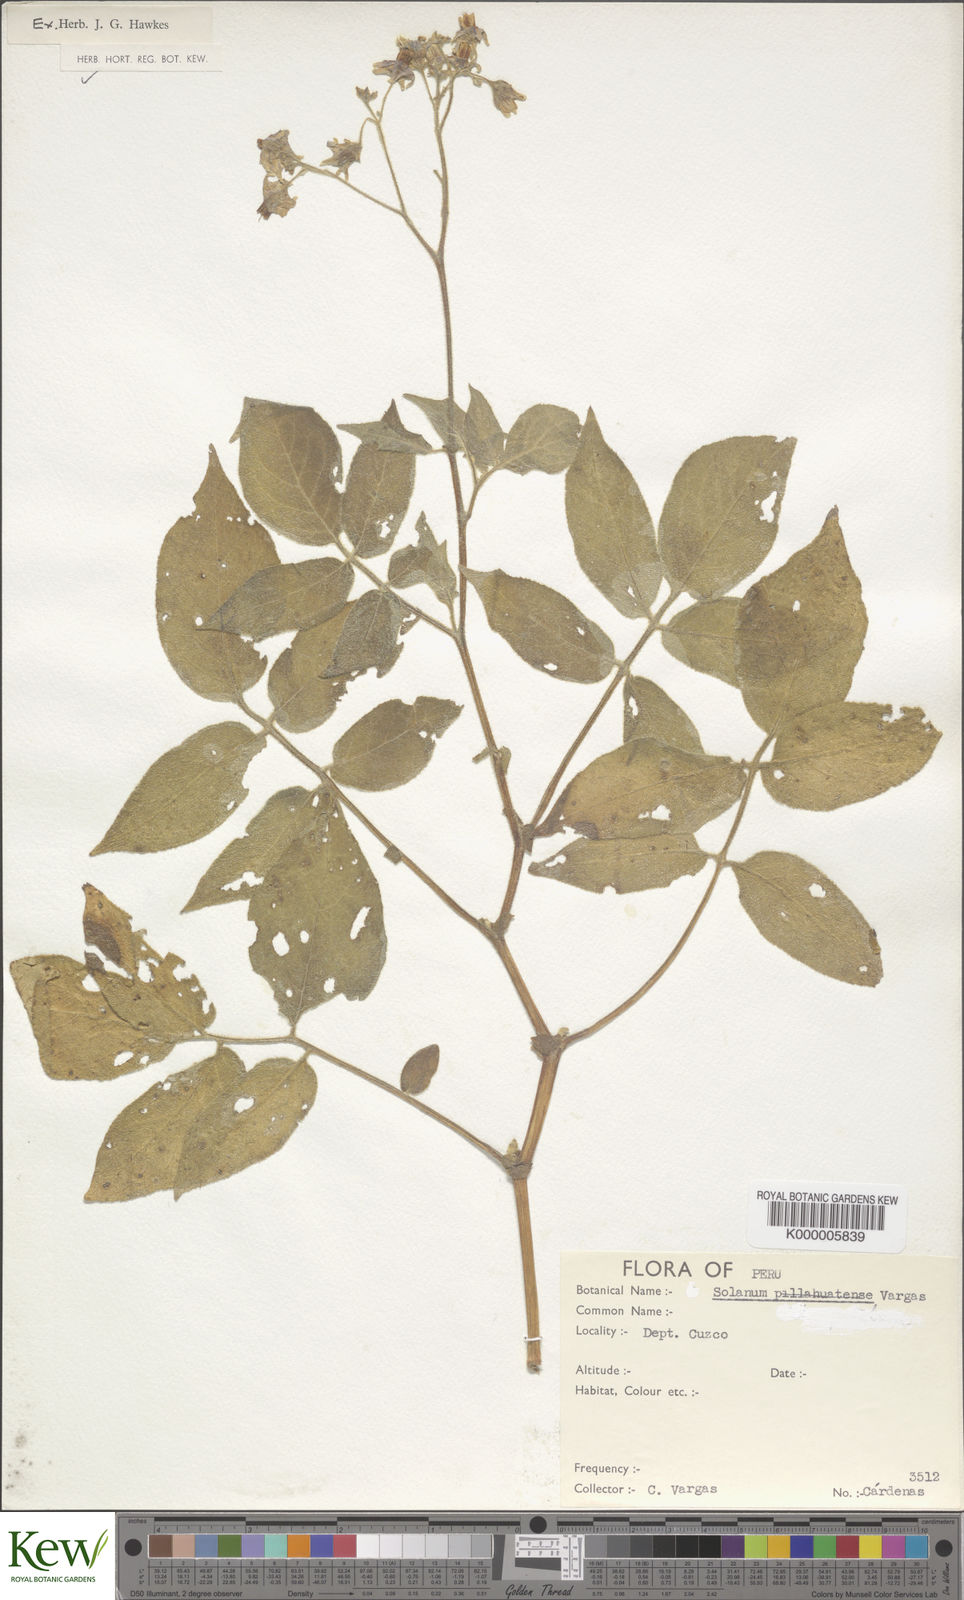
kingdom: Plantae
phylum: Tracheophyta
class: Magnoliopsida
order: Solanales
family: Solanaceae
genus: Solanum
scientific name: Solanum violaceimarmoratum
